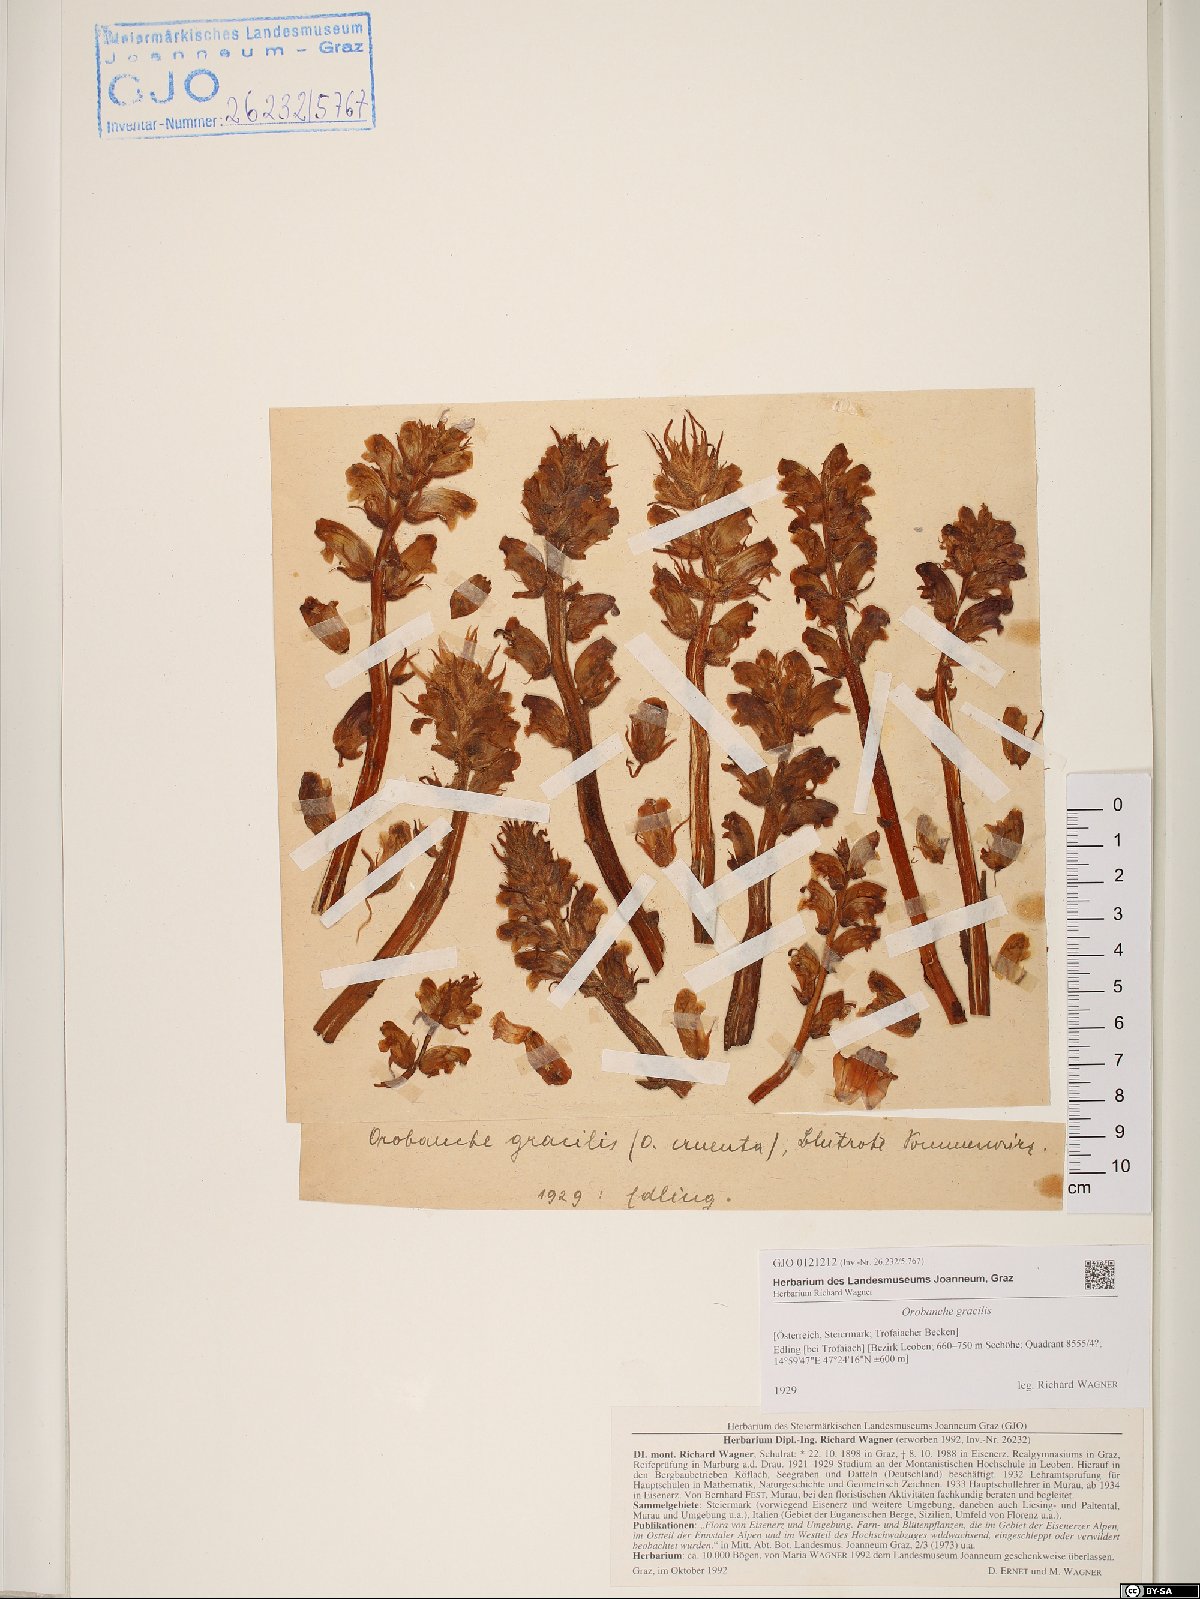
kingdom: Plantae
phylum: Tracheophyta
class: Magnoliopsida
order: Lamiales
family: Orobanchaceae
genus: Orobanche
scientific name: Orobanche gracilis
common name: Slender broomrape
